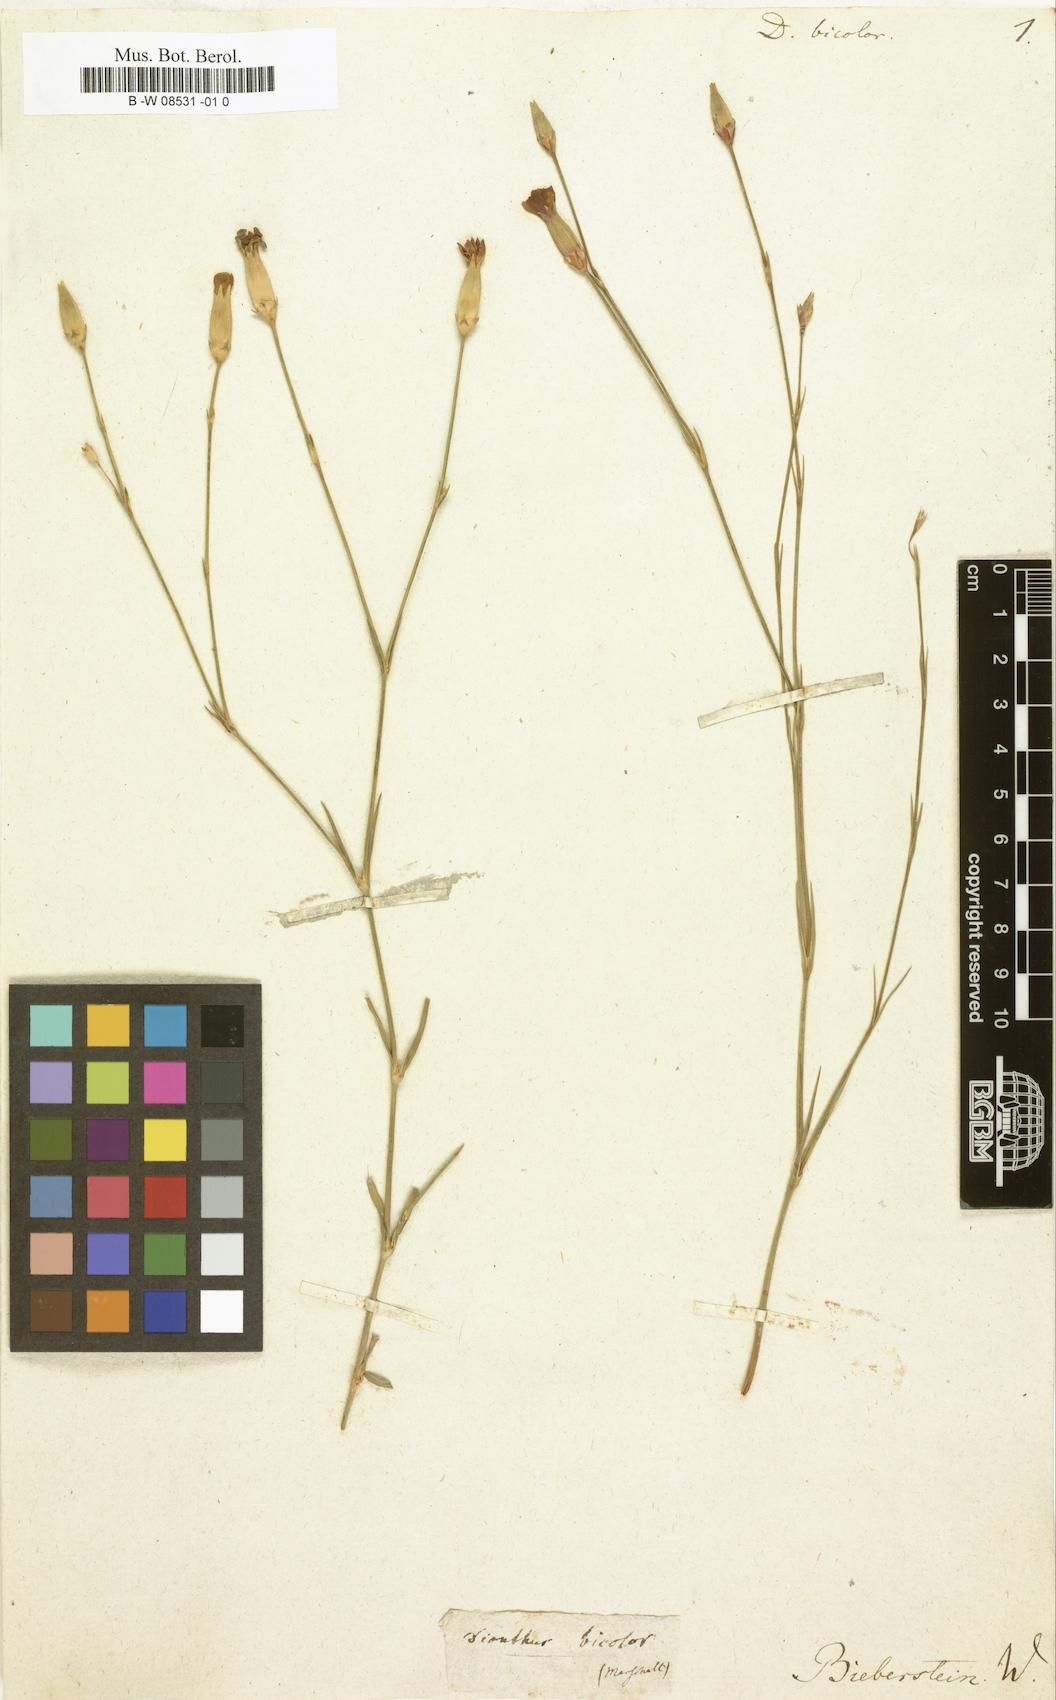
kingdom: Plantae
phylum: Tracheophyta
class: Magnoliopsida
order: Caryophyllales
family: Caryophyllaceae
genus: Dianthus
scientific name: Dianthus bicolor
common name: Bicolour pink
